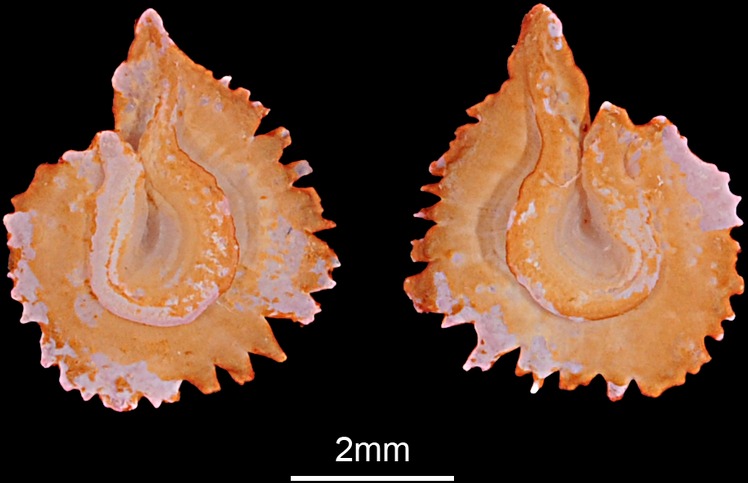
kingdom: Animalia
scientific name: Animalia
